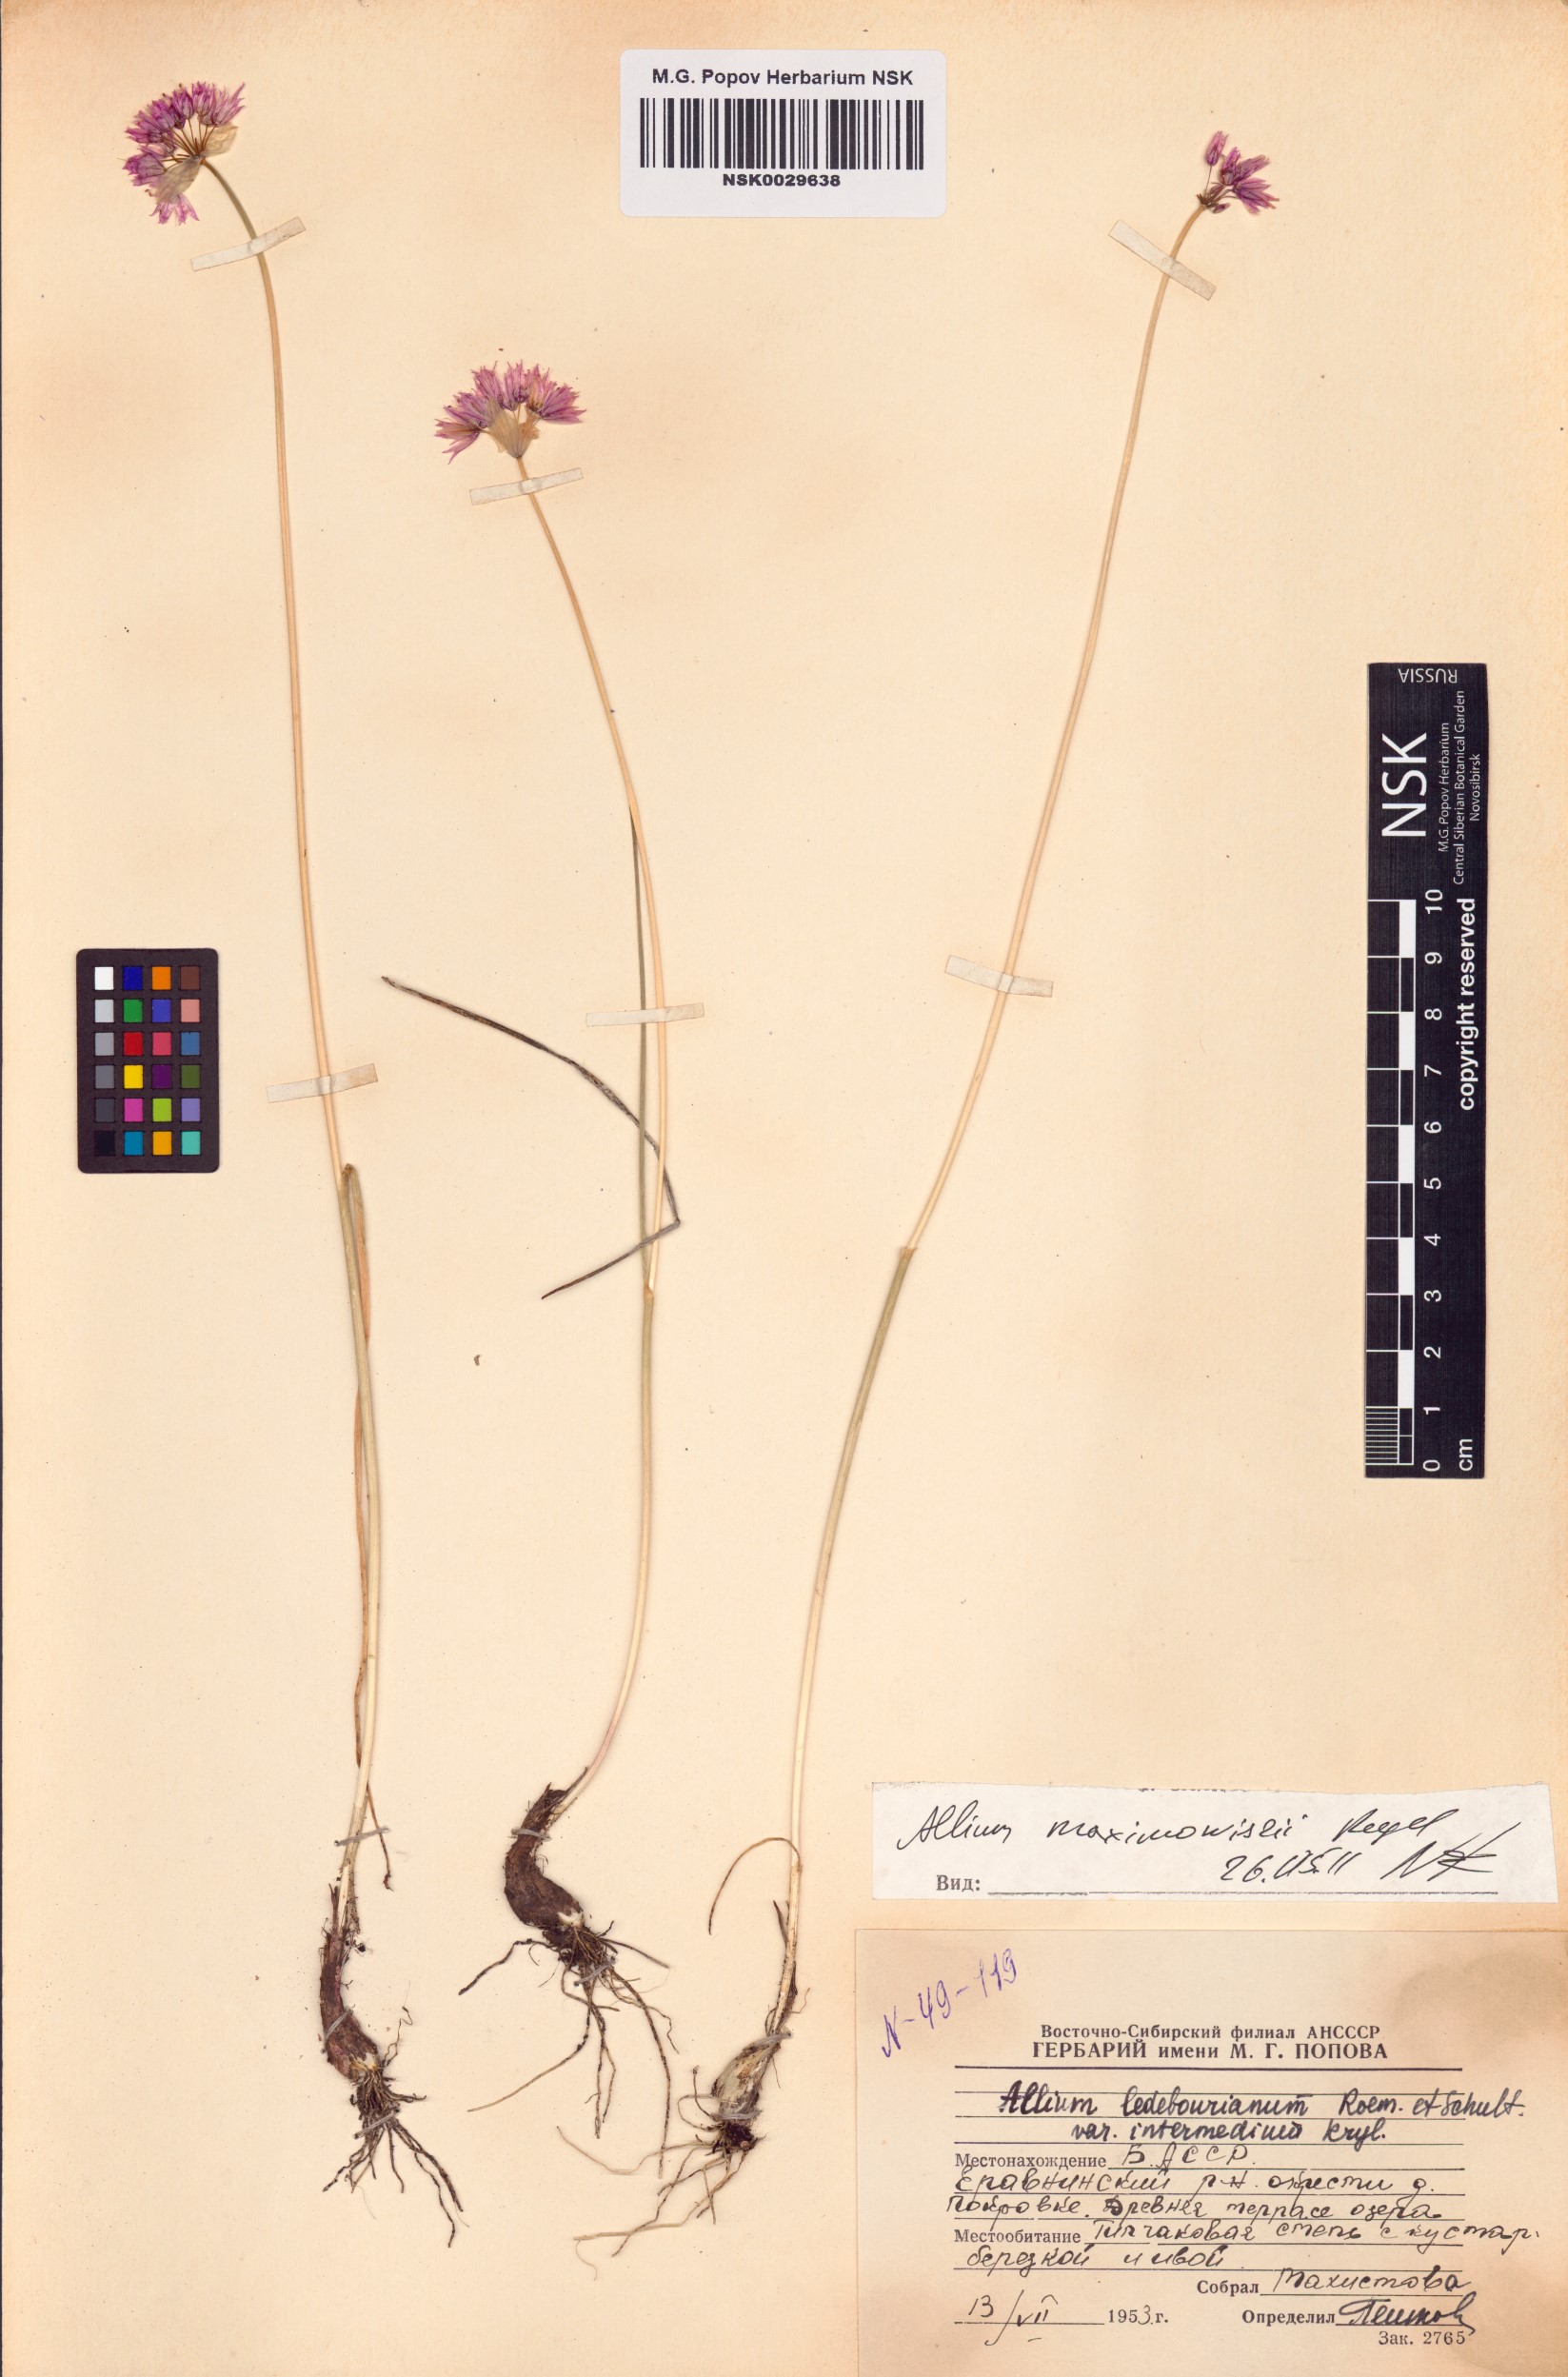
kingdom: Plantae
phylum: Tracheophyta
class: Liliopsida
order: Asparagales
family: Amaryllidaceae
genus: Allium
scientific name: Allium maximowiczii
